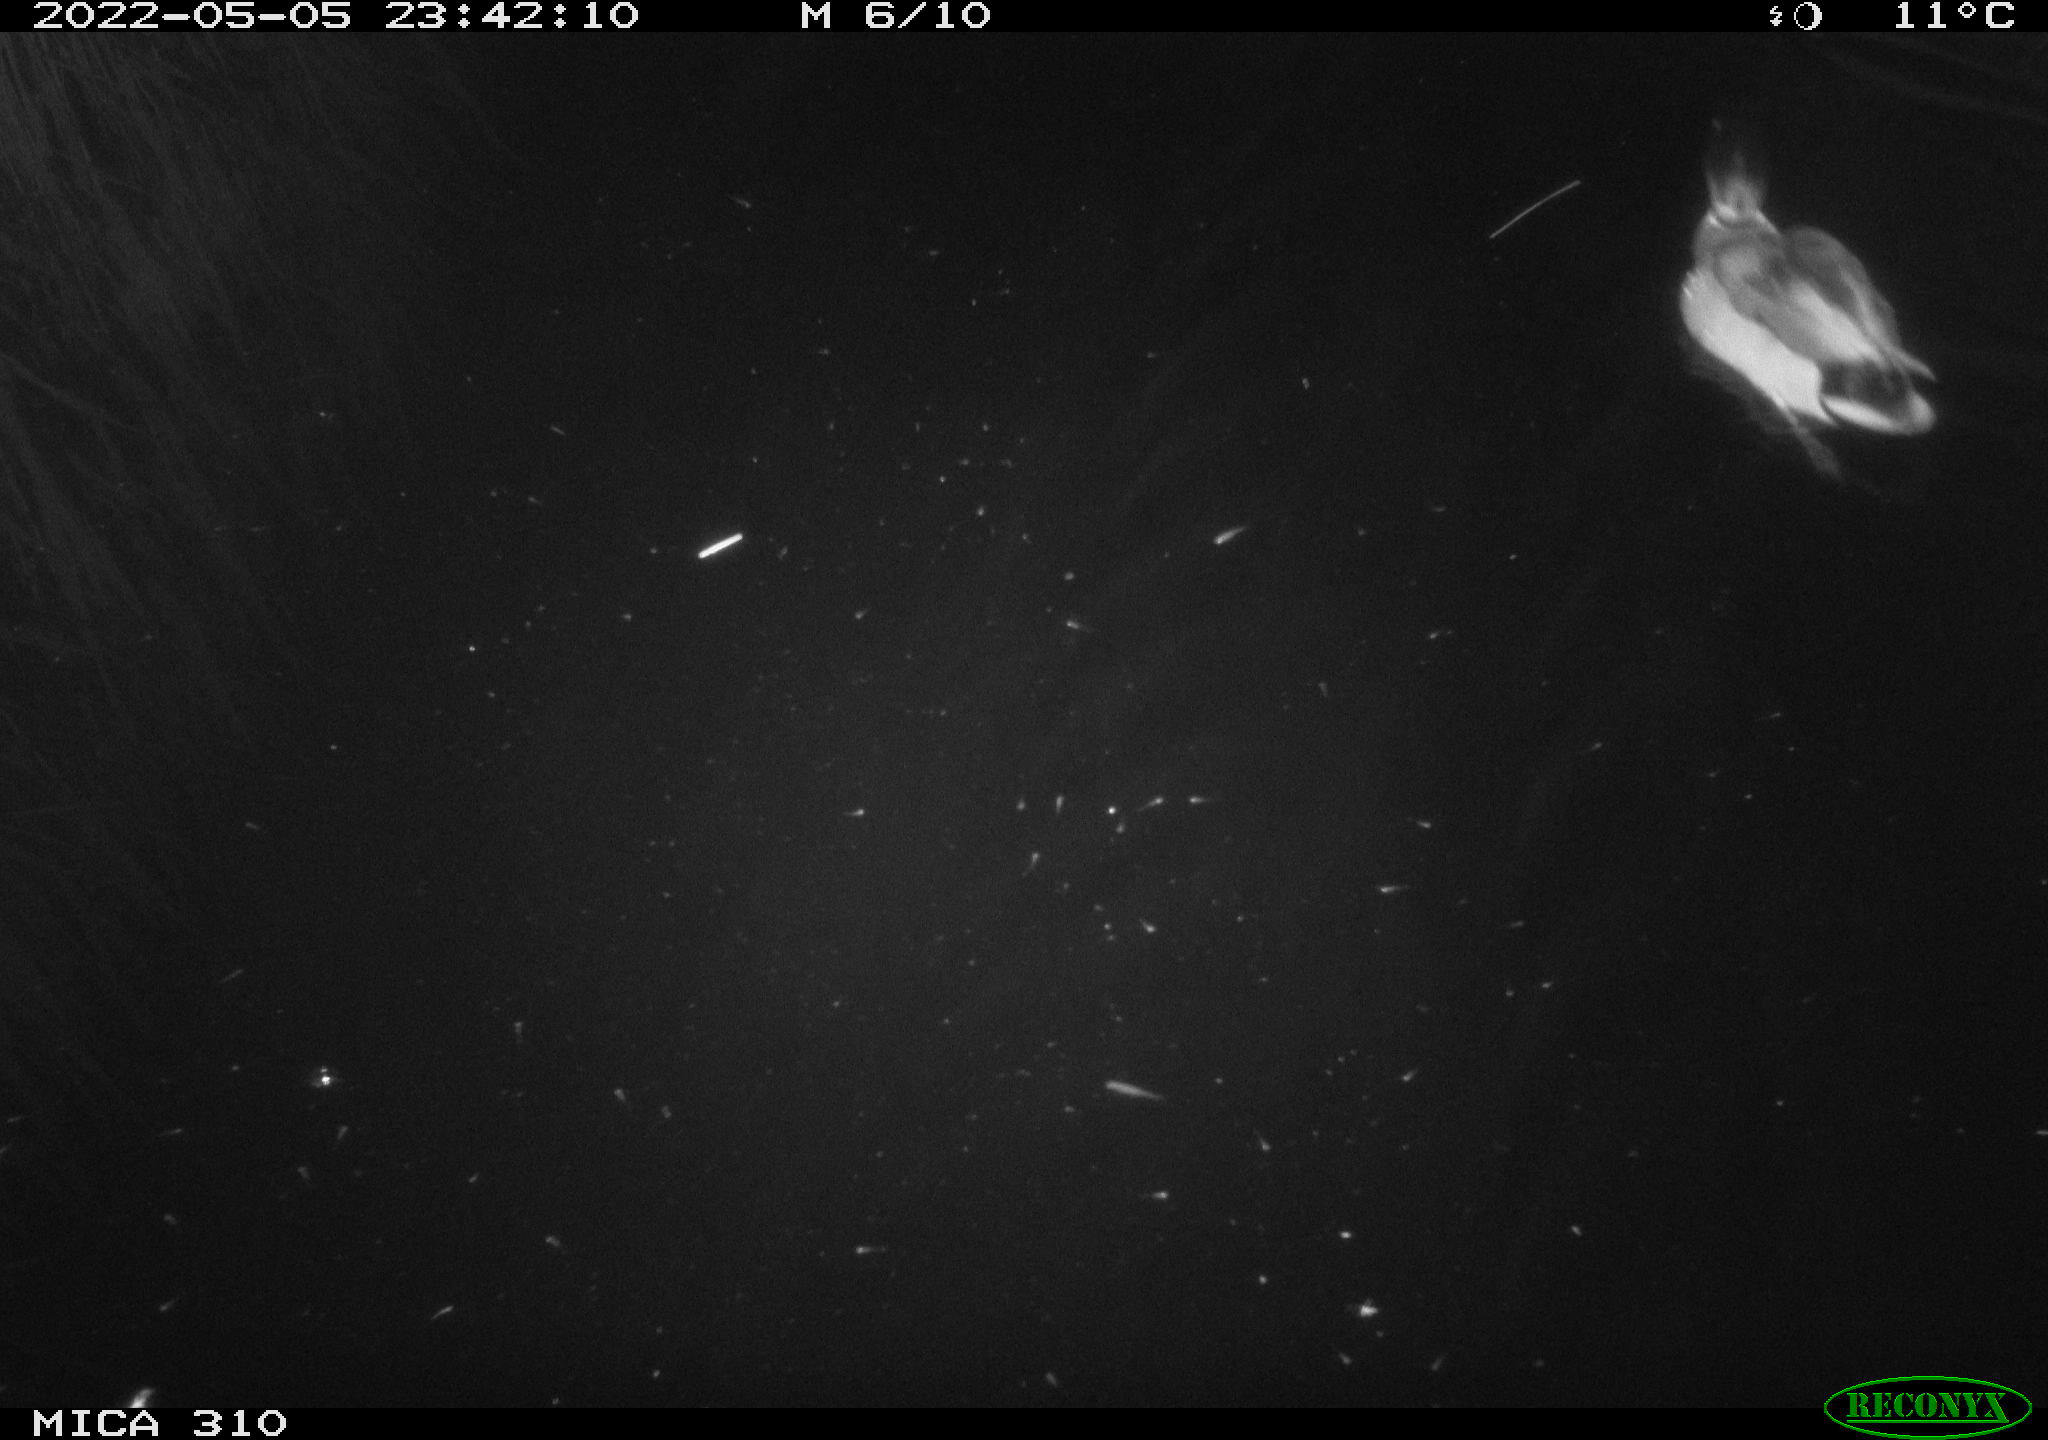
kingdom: Animalia
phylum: Chordata
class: Aves
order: Anseriformes
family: Anatidae
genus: Anas
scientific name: Anas platyrhynchos
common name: Mallard
